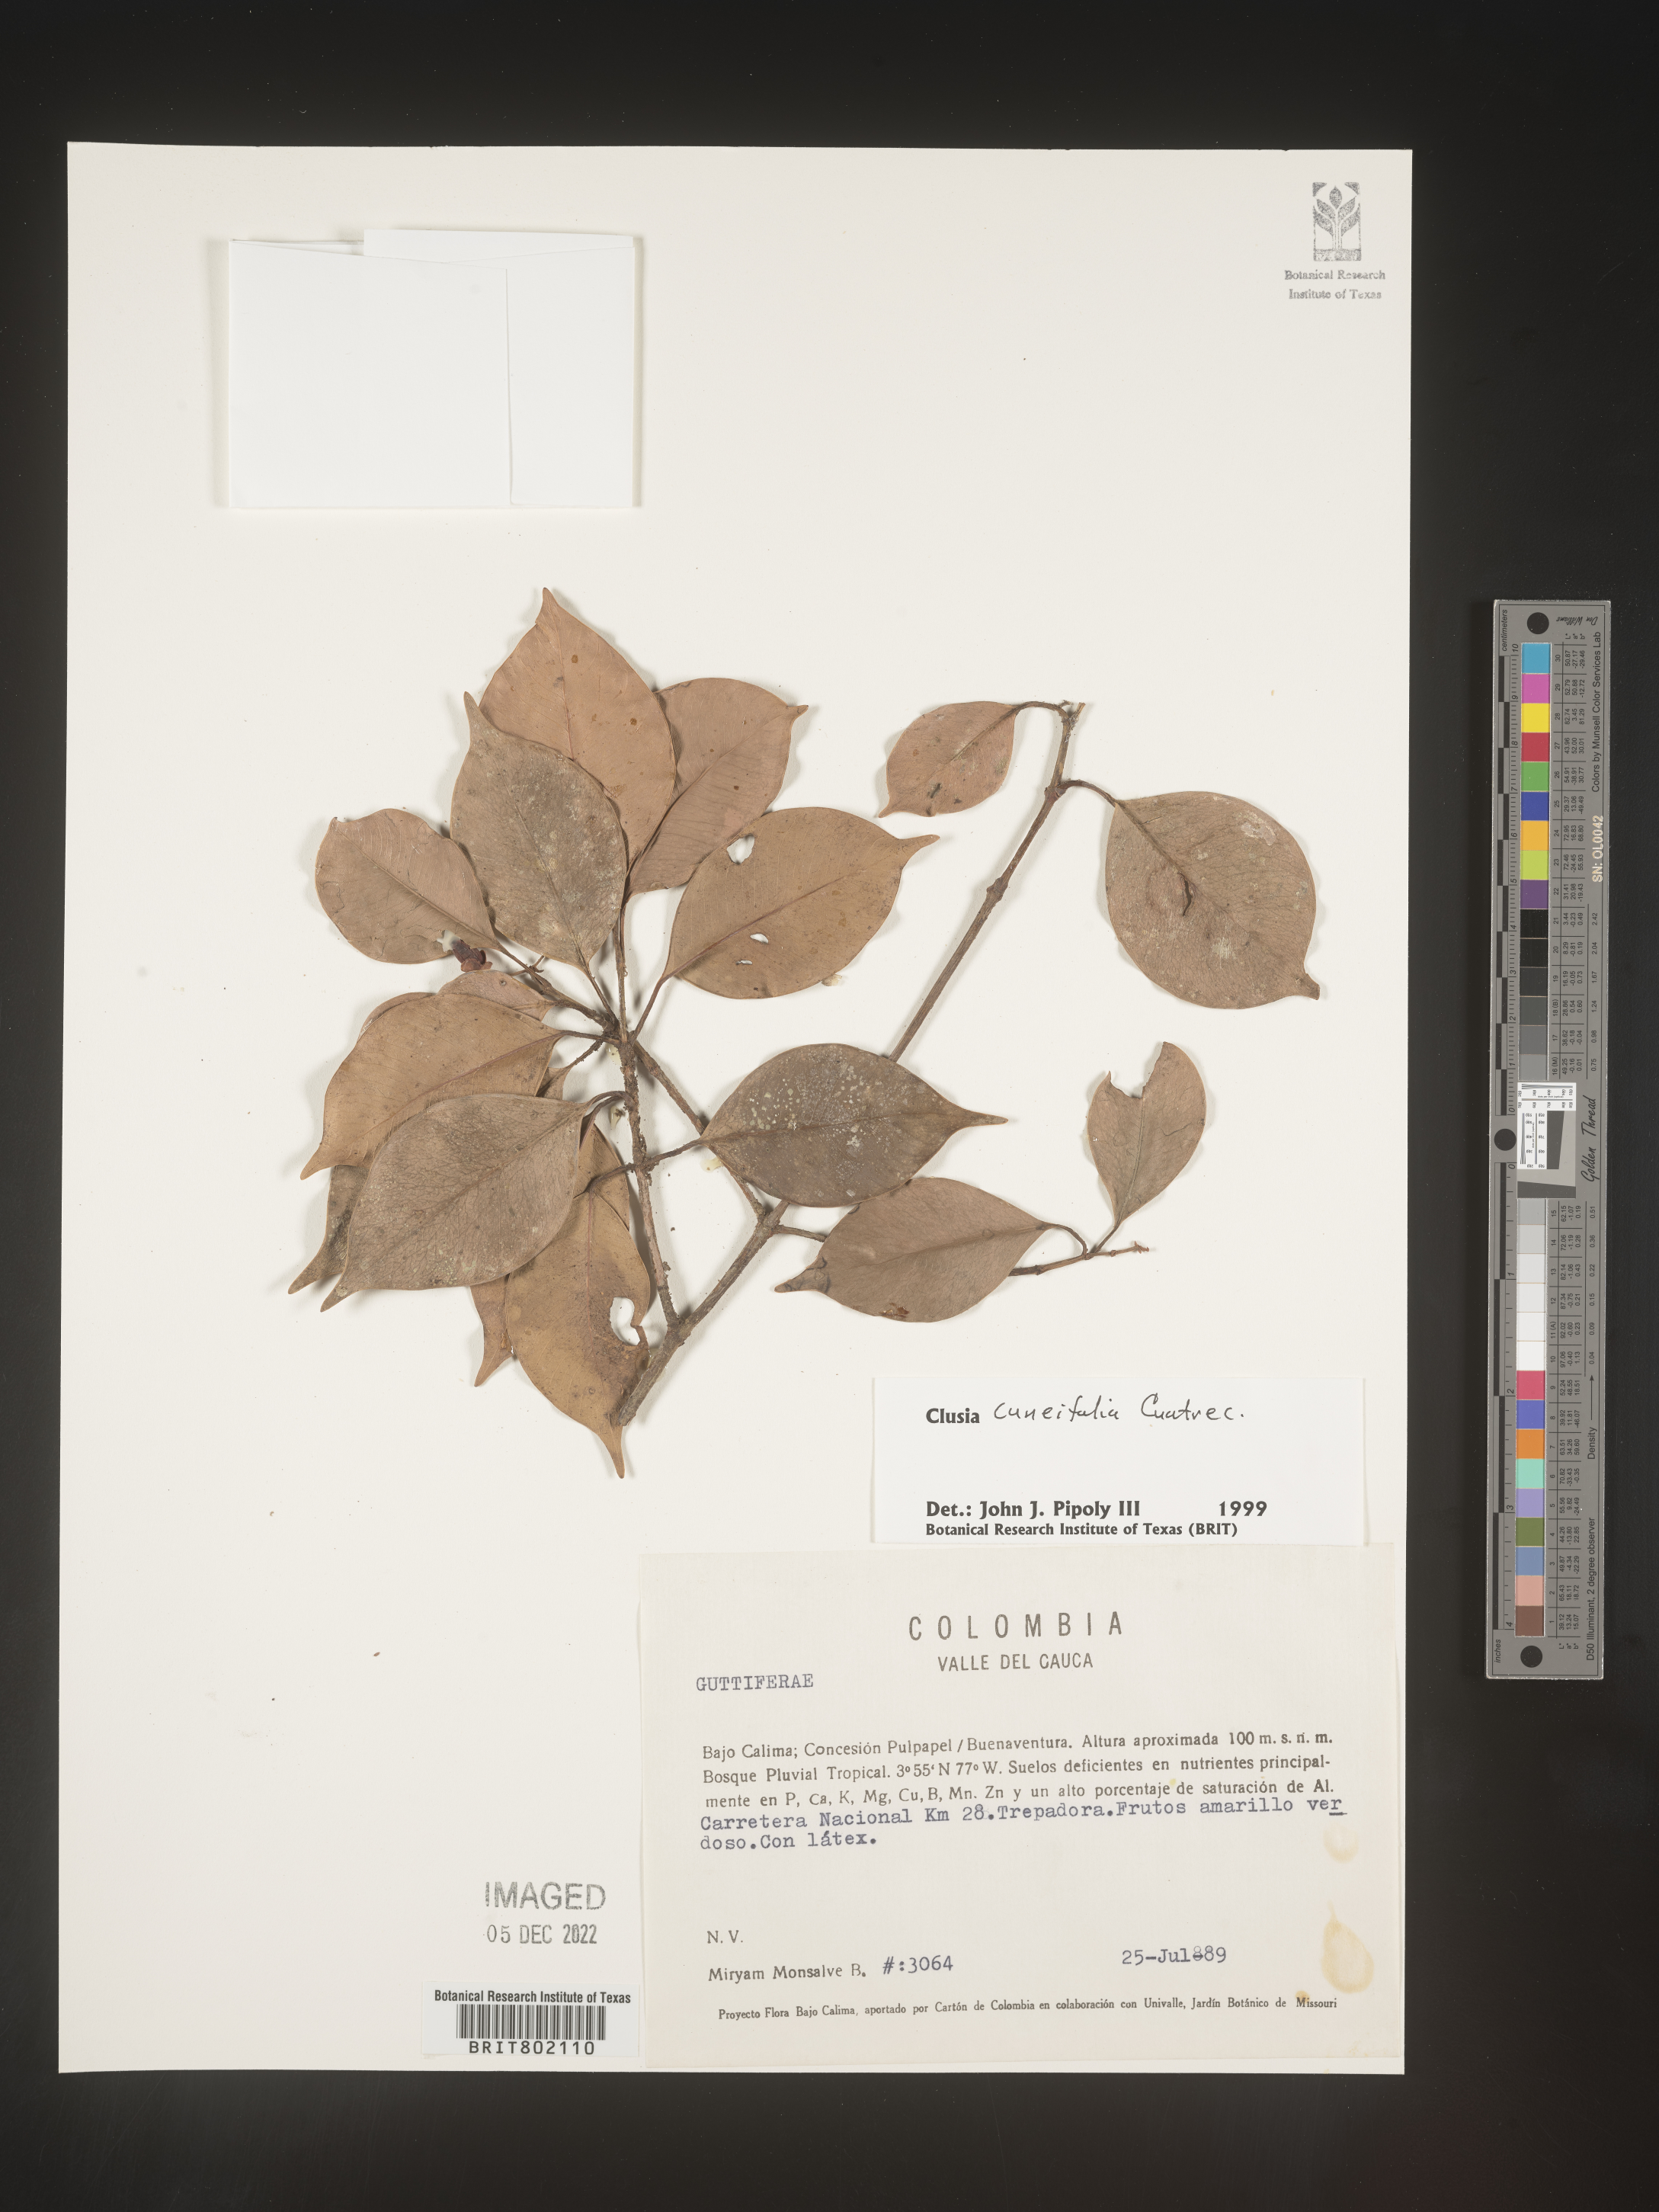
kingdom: Plantae
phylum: Tracheophyta
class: Magnoliopsida
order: Malpighiales
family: Clusiaceae
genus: Clusia
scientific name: Clusia
